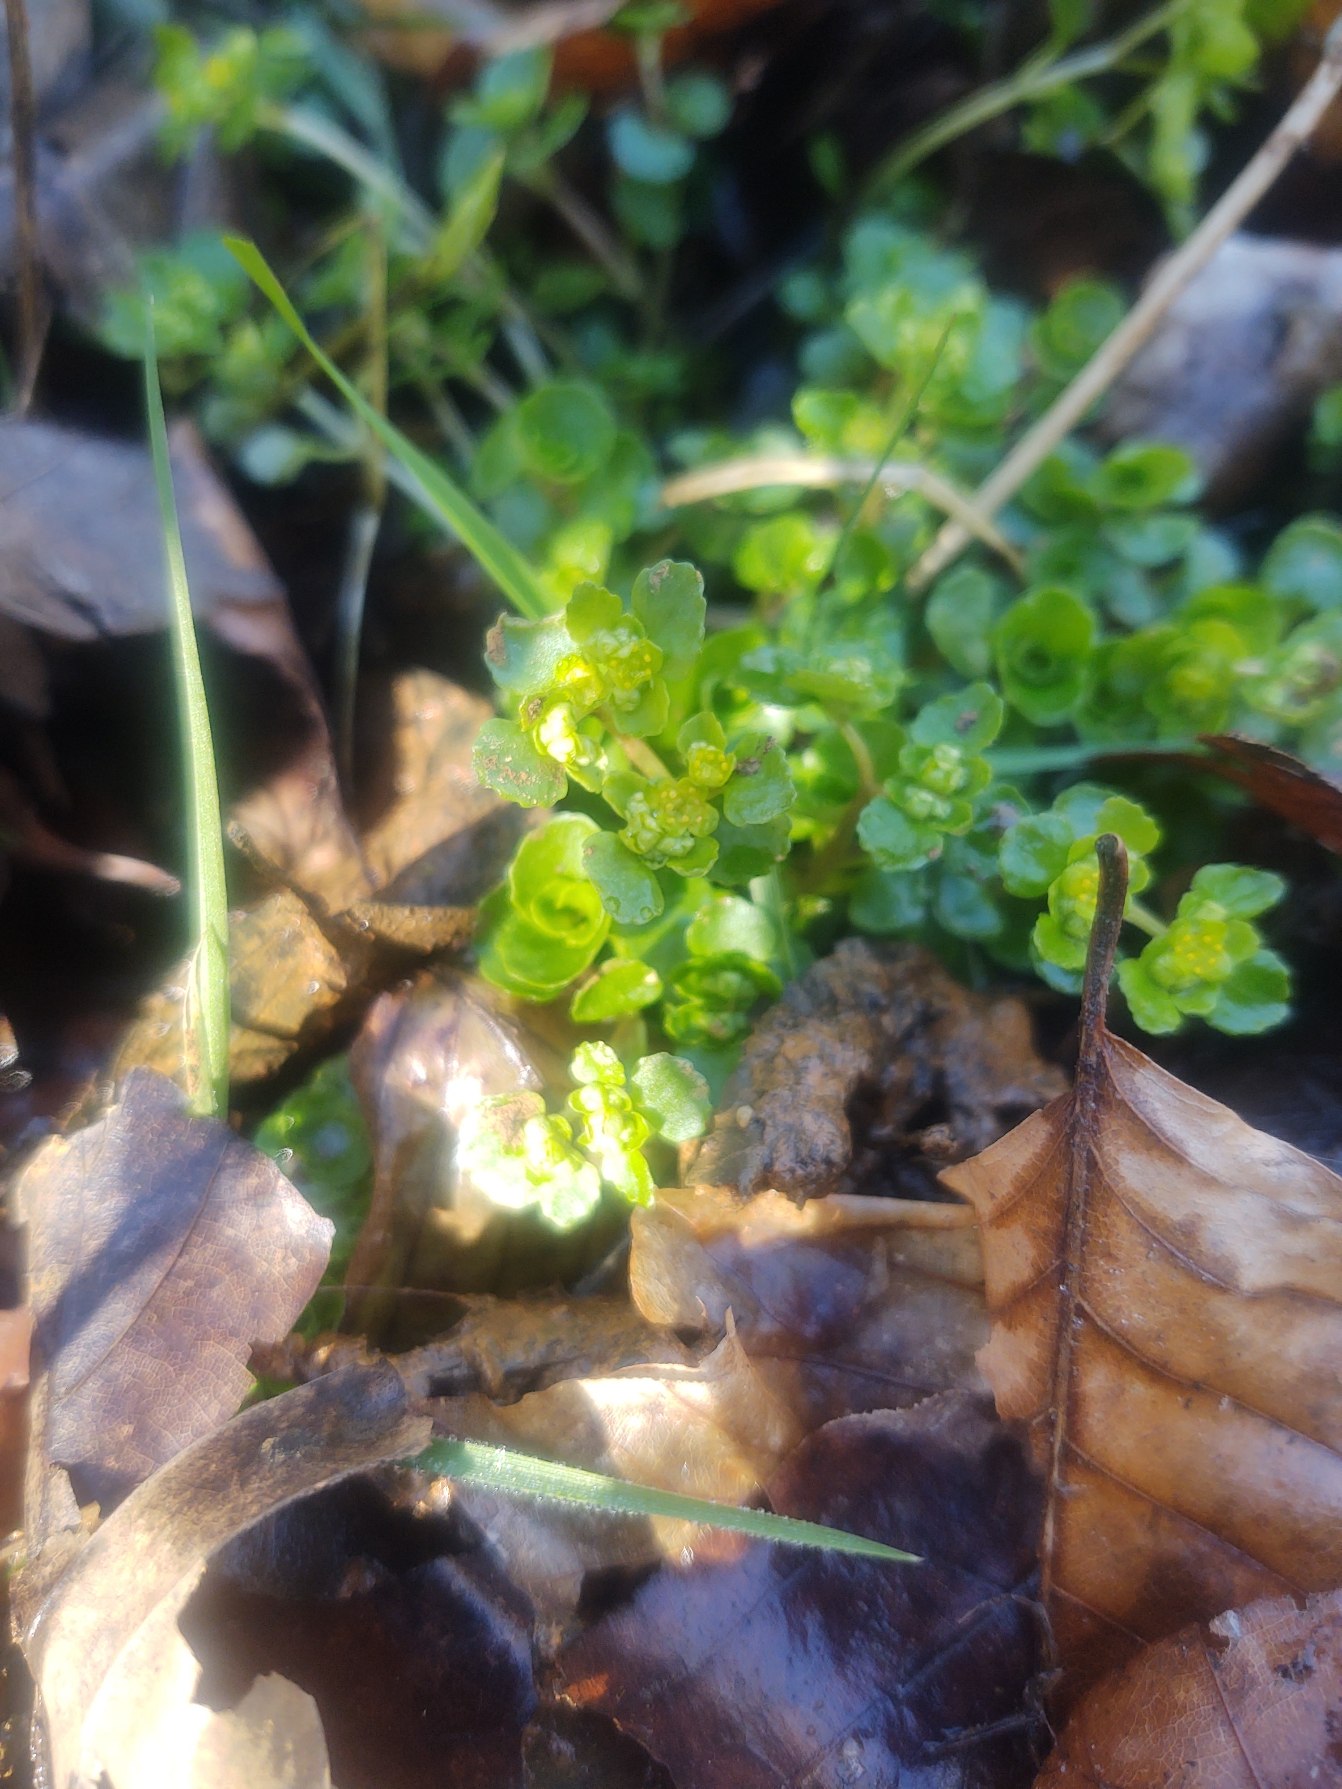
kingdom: Plantae
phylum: Tracheophyta
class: Magnoliopsida
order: Saxifragales
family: Saxifragaceae
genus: Chrysosplenium
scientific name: Chrysosplenium oppositifolium
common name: Småbladet milturt
